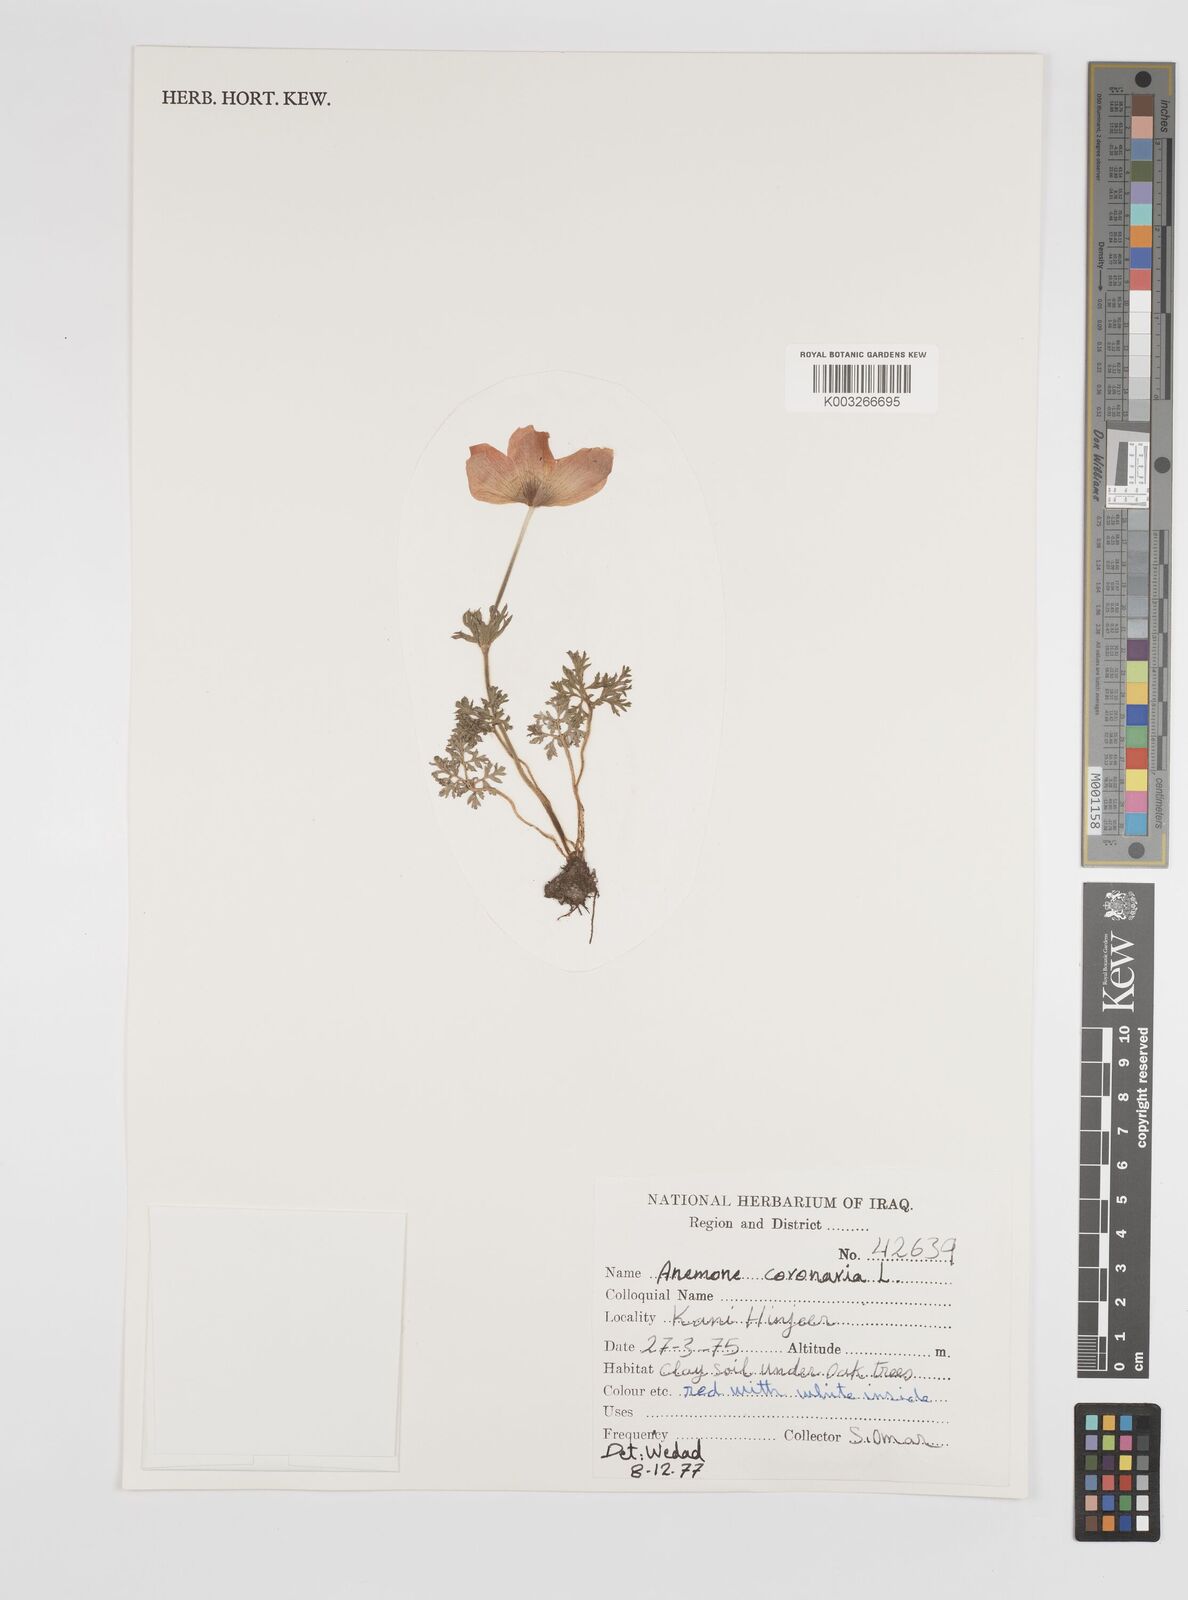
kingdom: Plantae
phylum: Tracheophyta
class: Magnoliopsida
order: Ranunculales
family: Ranunculaceae
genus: Anemone
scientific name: Anemone coronaria
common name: Poppy anemone
